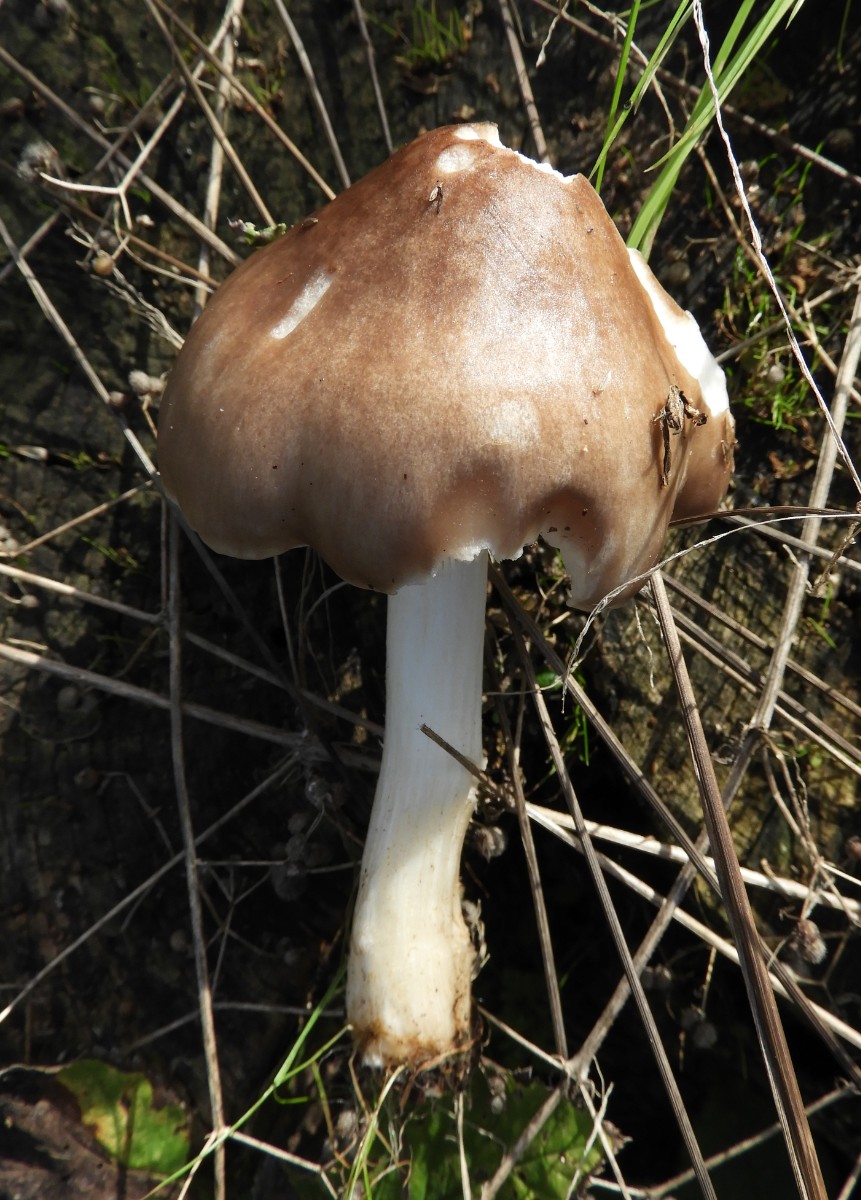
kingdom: Fungi
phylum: Basidiomycota
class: Agaricomycetes
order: Agaricales
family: Pluteaceae
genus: Pluteus
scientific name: Pluteus cervinus
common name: sodfarvet skærmhat
